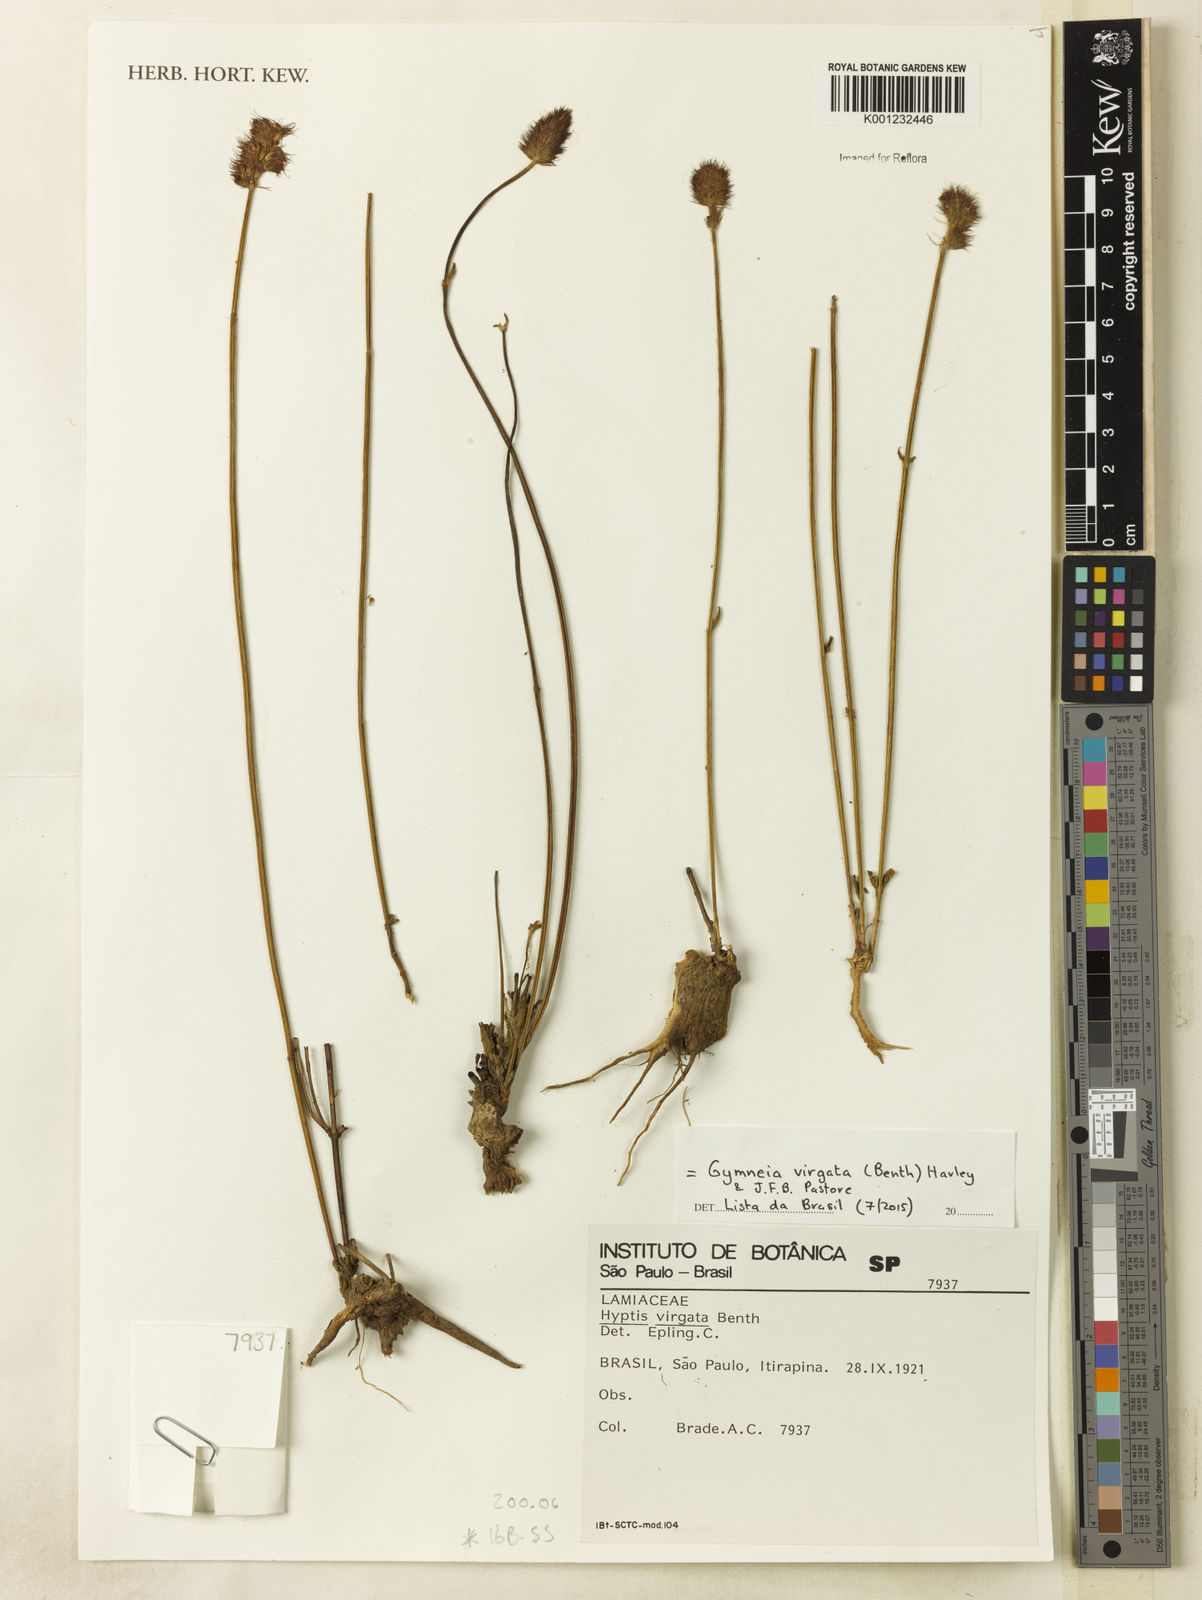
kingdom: Plantae
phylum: Tracheophyta
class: Magnoliopsida
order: Lamiales
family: Lamiaceae
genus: Gymneia
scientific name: Gymneia virgata
